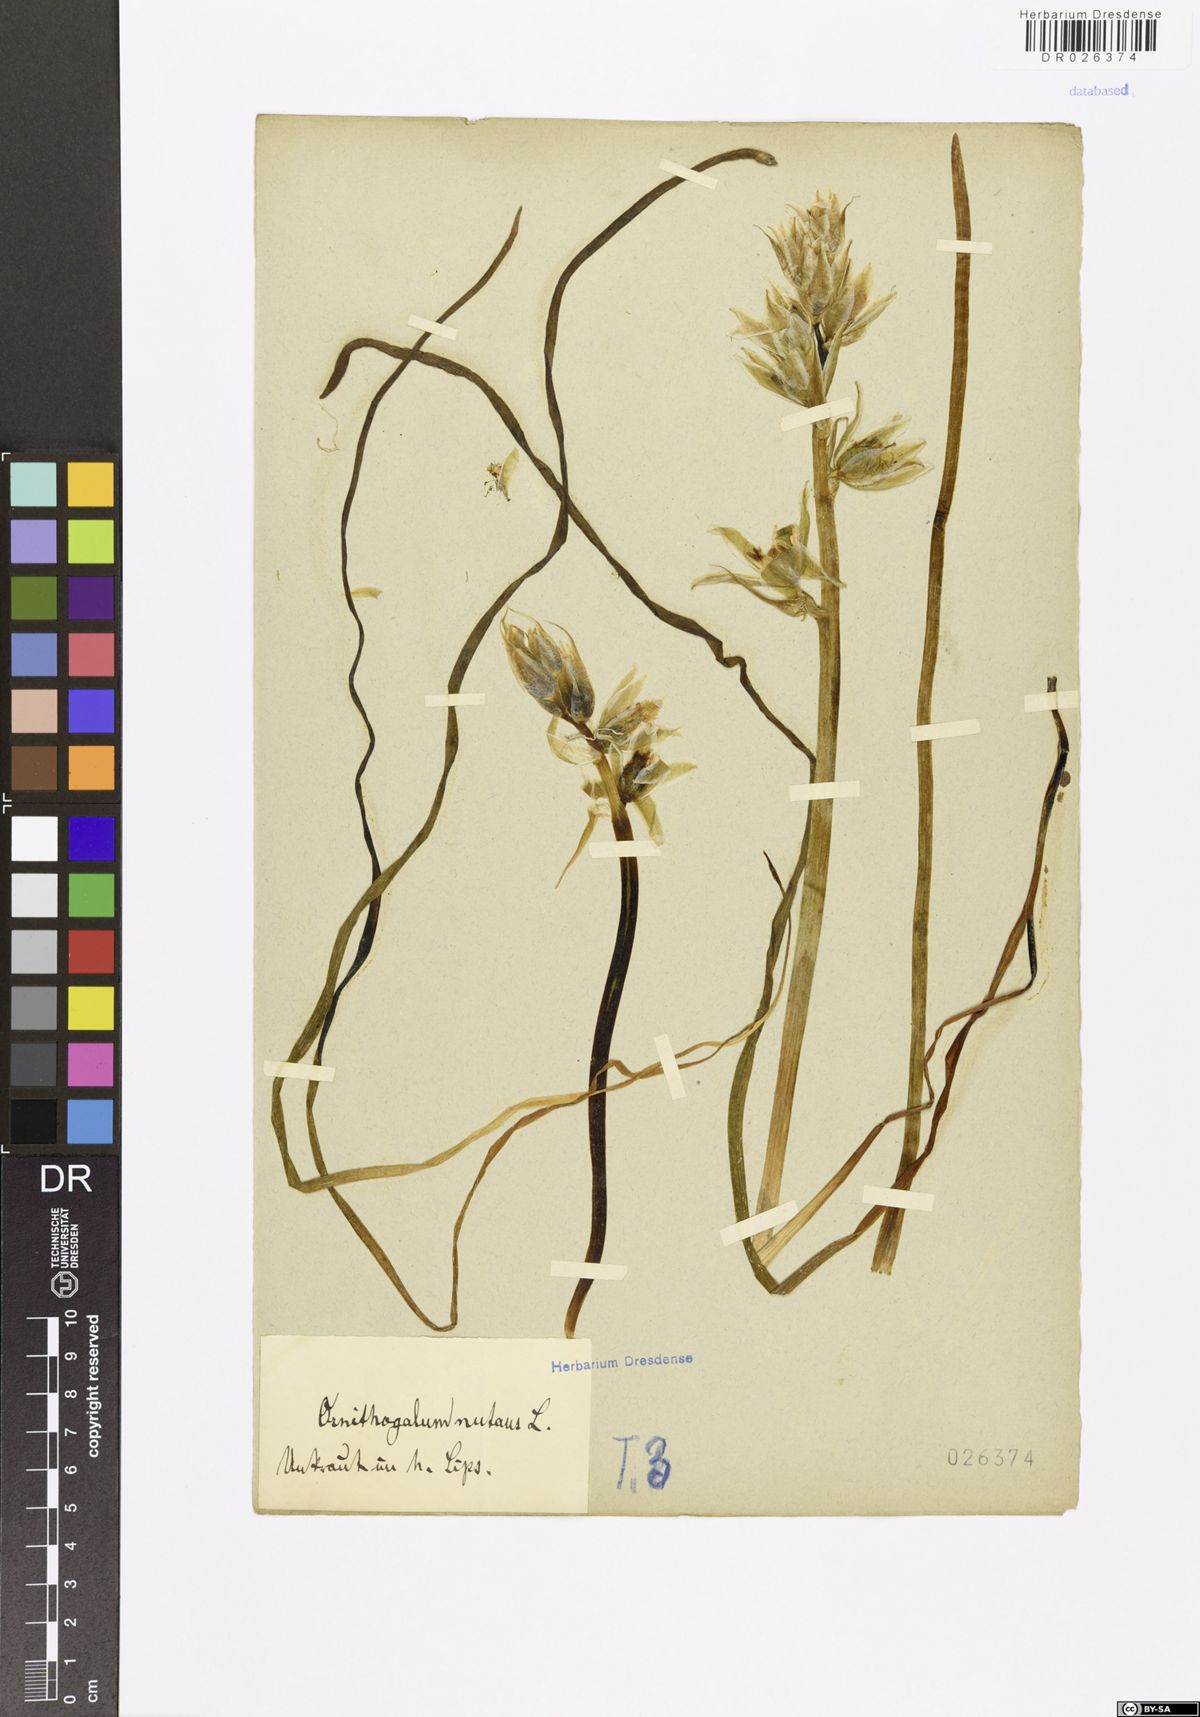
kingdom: Plantae
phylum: Tracheophyta
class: Liliopsida
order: Asparagales
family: Asparagaceae
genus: Ornithogalum
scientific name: Ornithogalum nutans
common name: Drooping star-of-bethlehem
